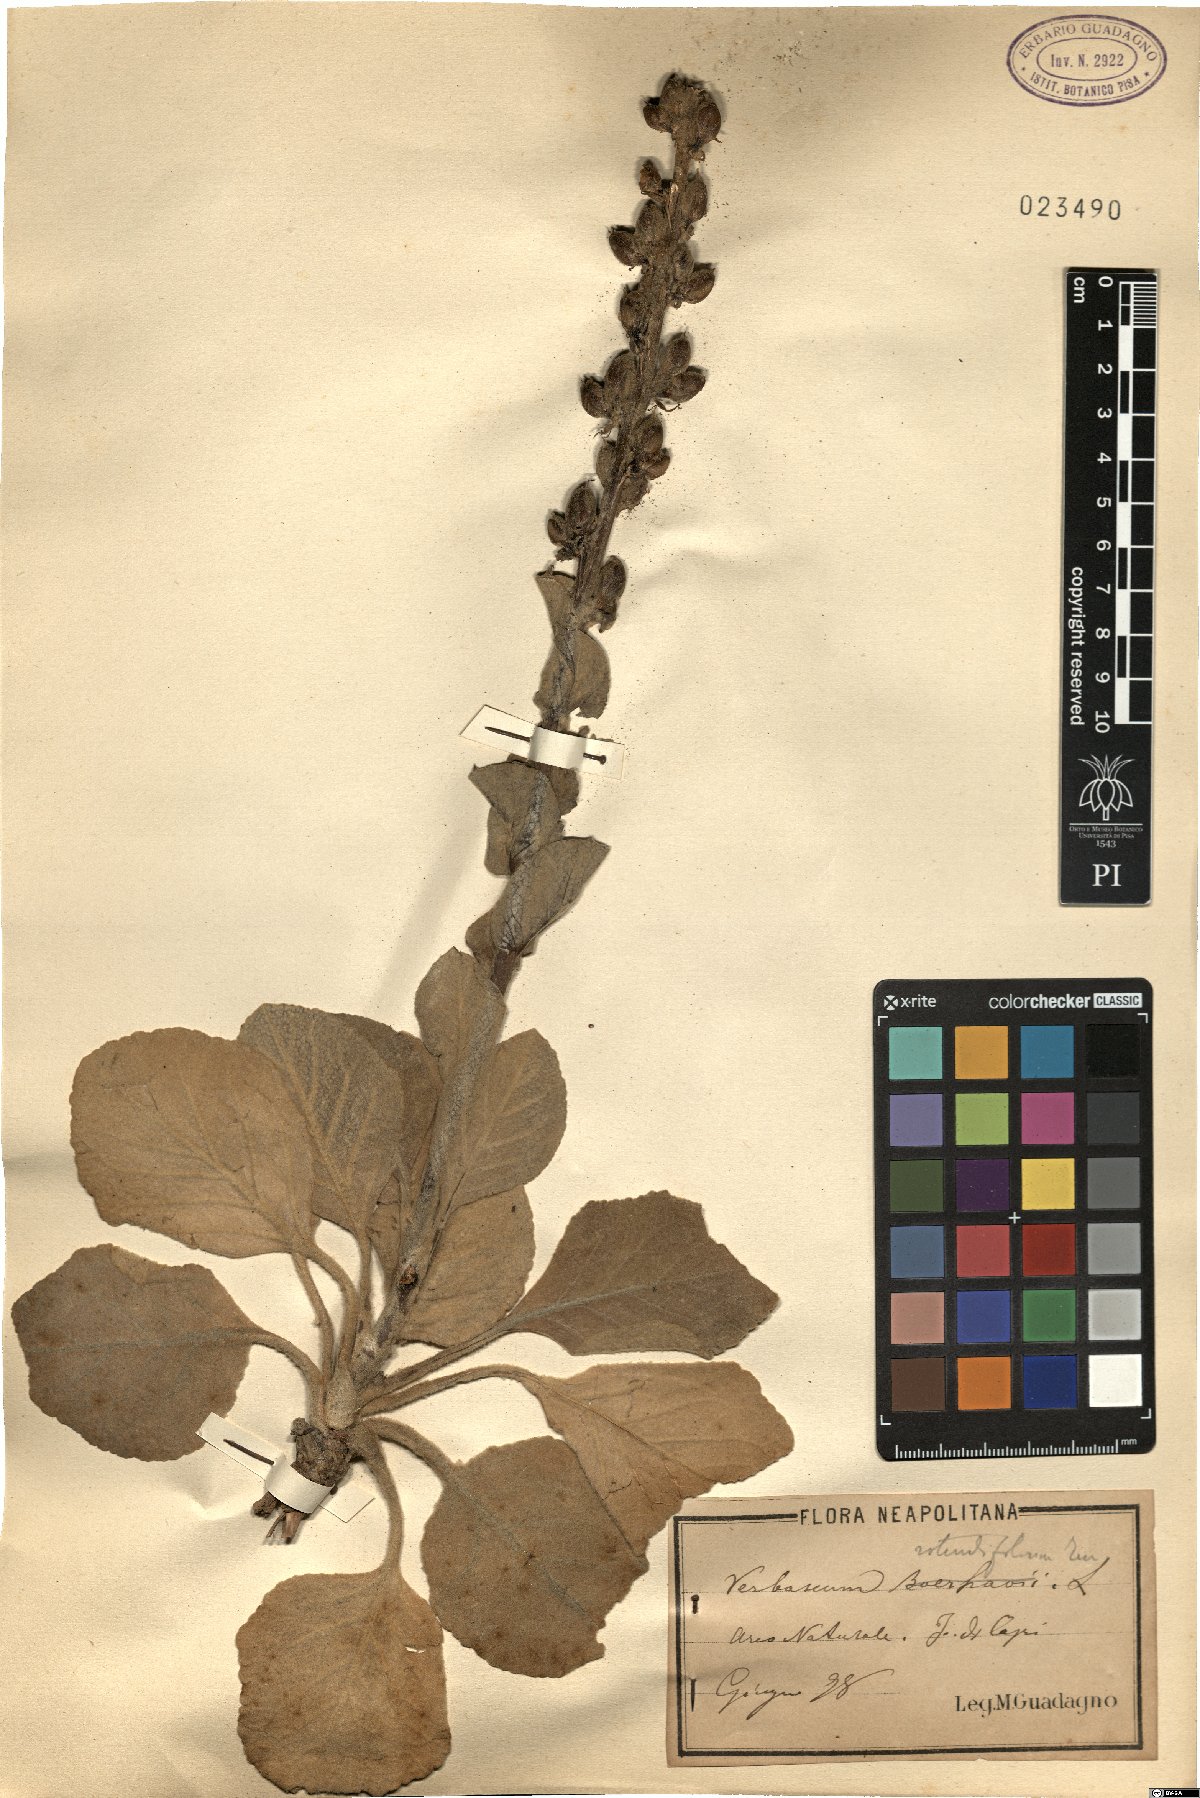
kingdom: Plantae
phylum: Tracheophyta
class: Magnoliopsida
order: Lamiales
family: Scrophulariaceae
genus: Verbascum
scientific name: Verbascum rotundifolium
